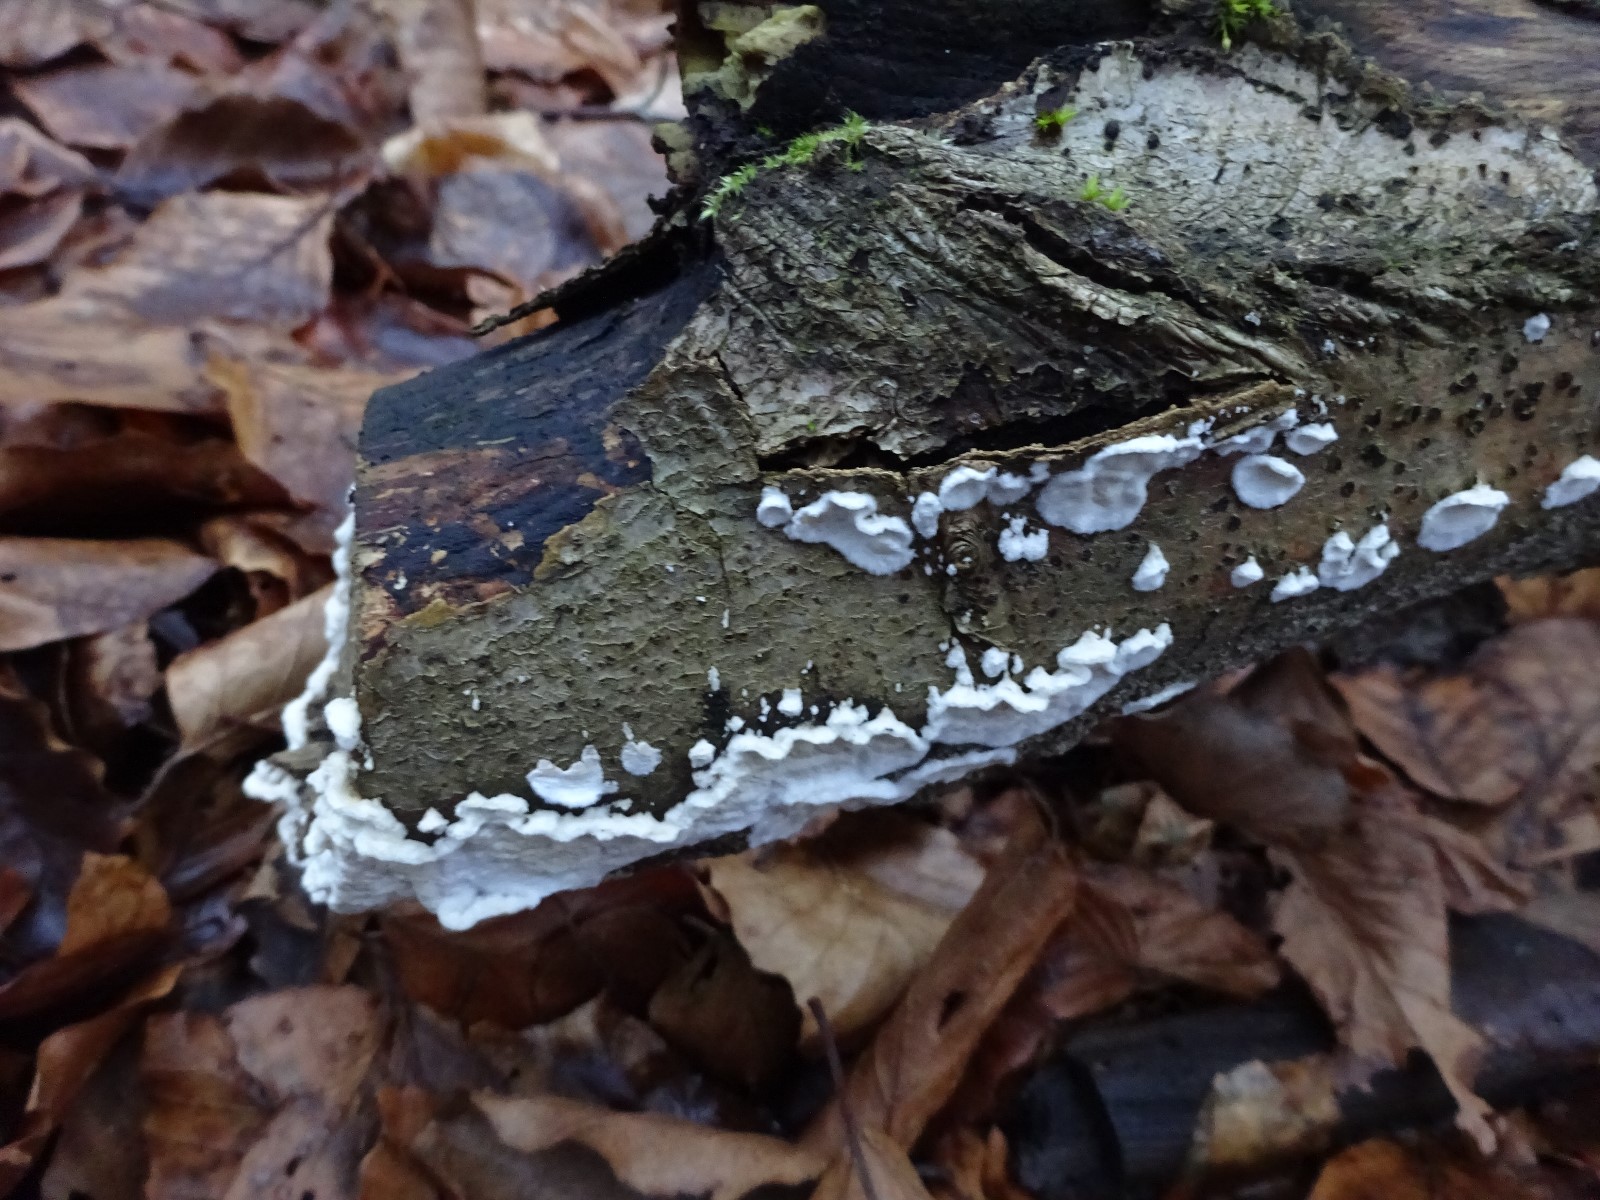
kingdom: Fungi
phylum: Basidiomycota
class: Agaricomycetes
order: Polyporales
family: Irpicaceae
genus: Byssomerulius
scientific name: Byssomerulius corium
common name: læder-åresvamp
